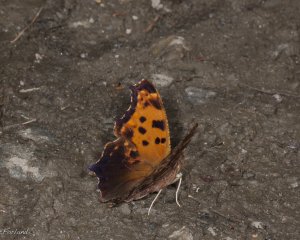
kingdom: Animalia
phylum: Arthropoda
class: Insecta
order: Lepidoptera
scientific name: Lepidoptera
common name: Butterflies
